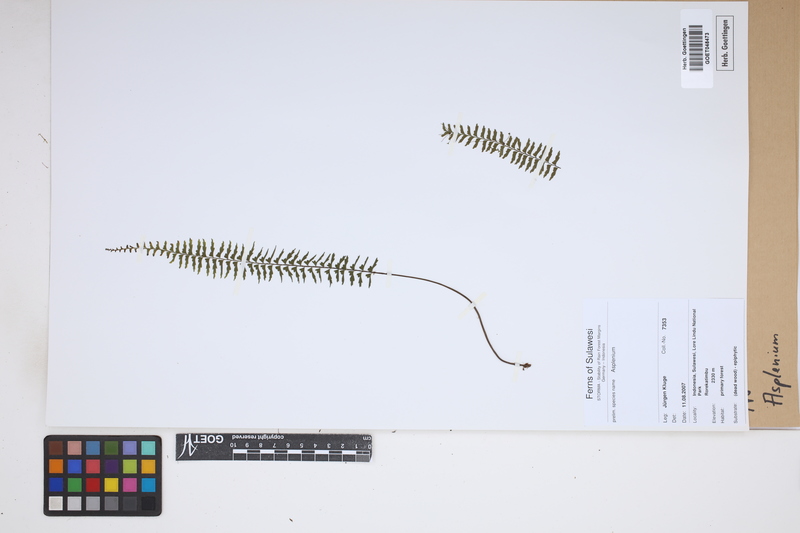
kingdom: Plantae
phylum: Tracheophyta
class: Polypodiopsida
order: Polypodiales
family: Aspleniaceae
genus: Asplenium
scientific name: Asplenium
